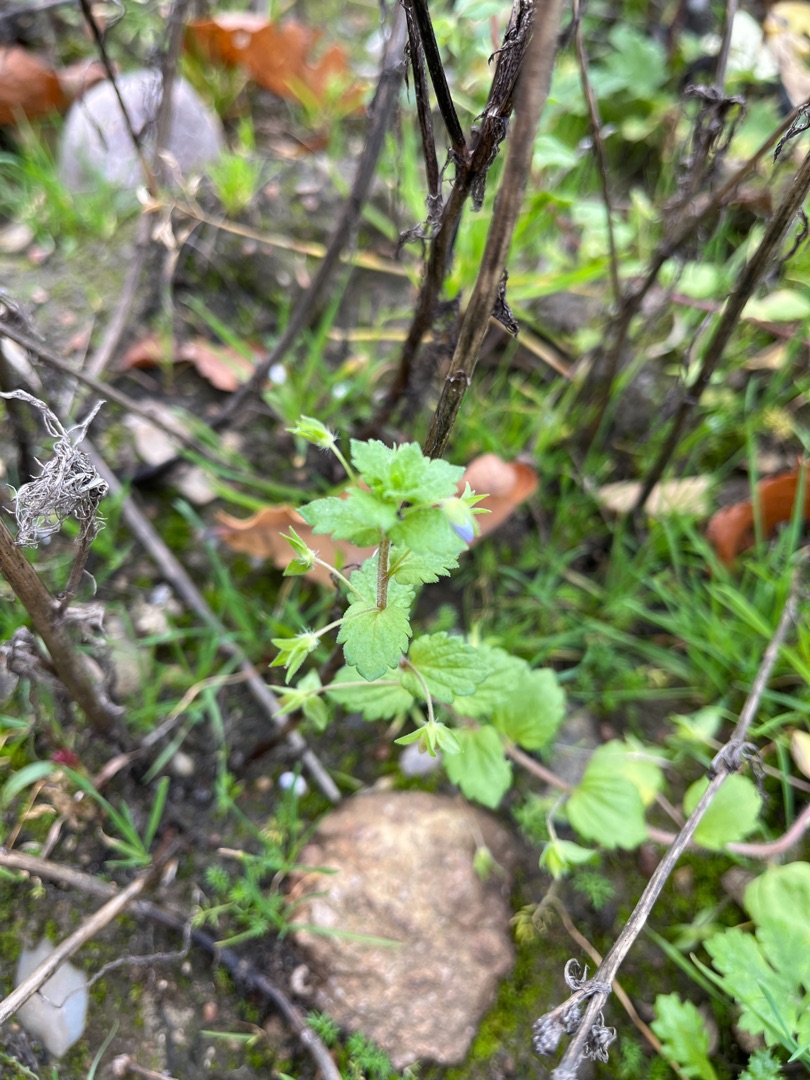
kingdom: Plantae
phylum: Tracheophyta
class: Magnoliopsida
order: Lamiales
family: Plantaginaceae
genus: Veronica
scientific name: Veronica persica
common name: Storkronet ærenpris
